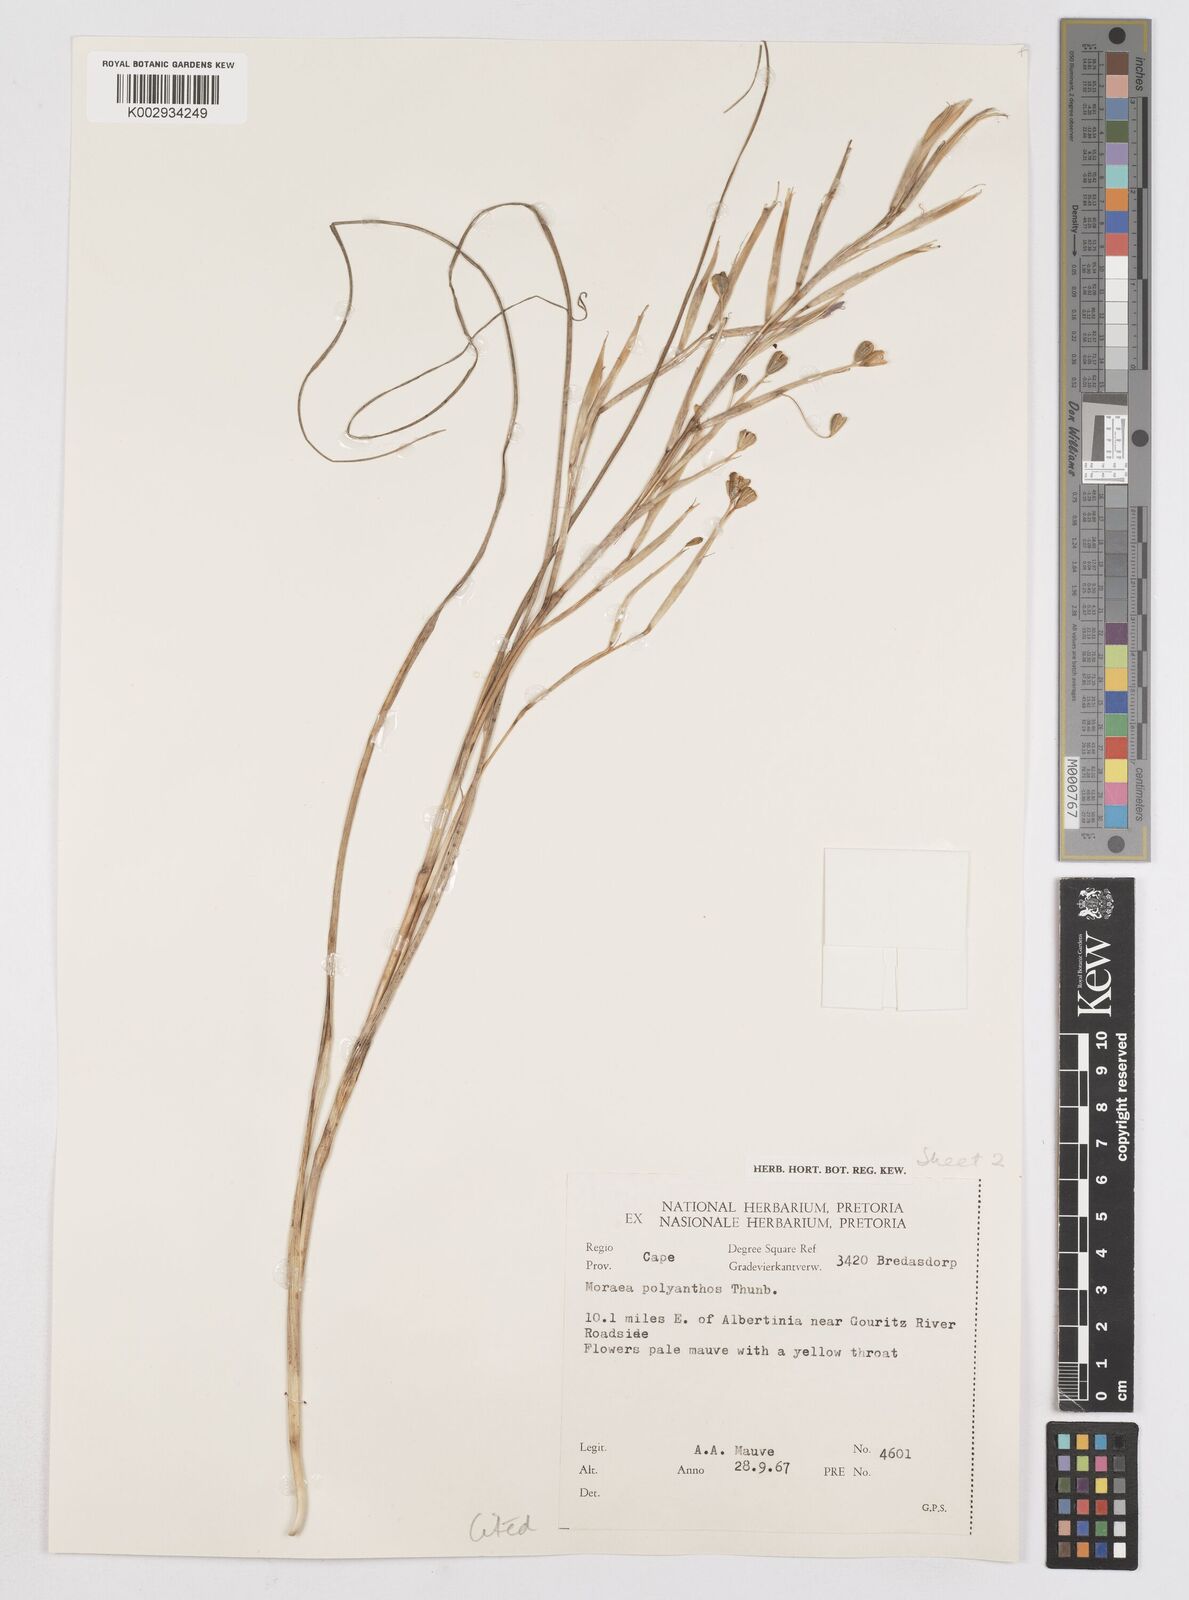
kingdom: Plantae
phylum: Tracheophyta
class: Liliopsida
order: Asparagales
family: Iridaceae
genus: Moraea
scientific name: Moraea bipartita
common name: Blue tulp
